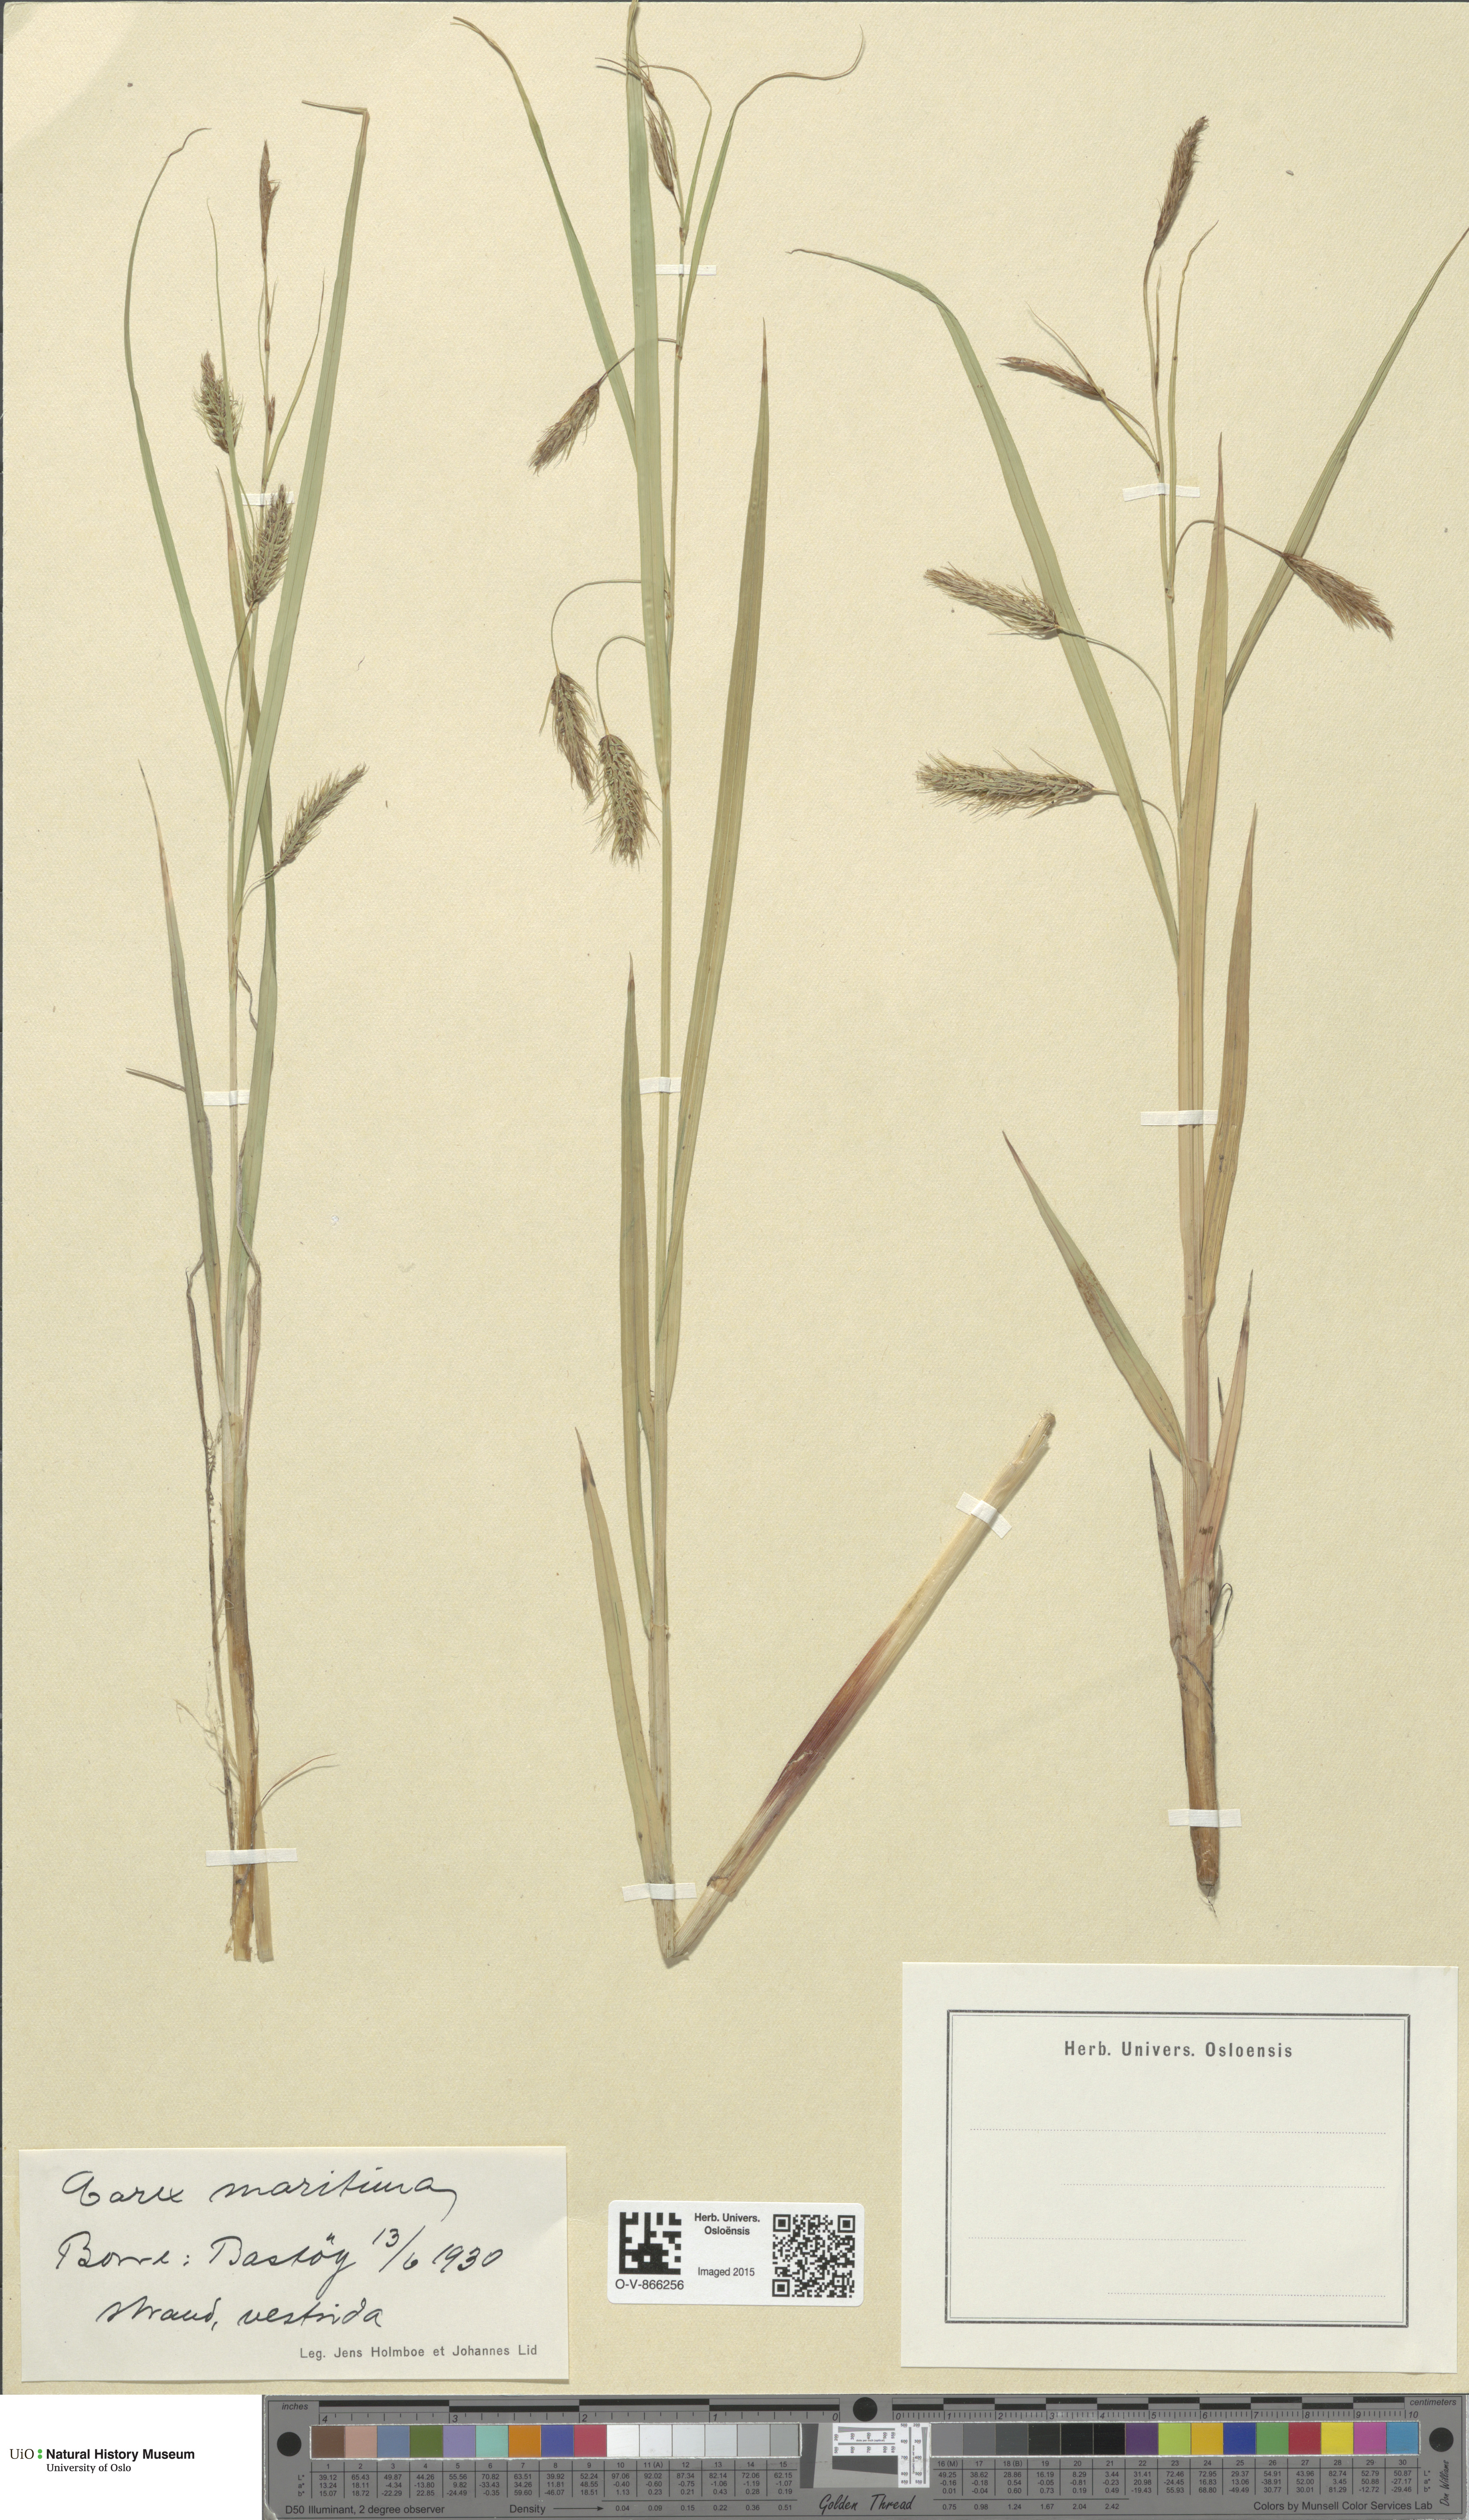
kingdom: Plantae
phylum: Tracheophyta
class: Liliopsida
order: Poales
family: Cyperaceae
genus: Carex
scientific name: Carex paleacea
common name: Chaffy sedge
